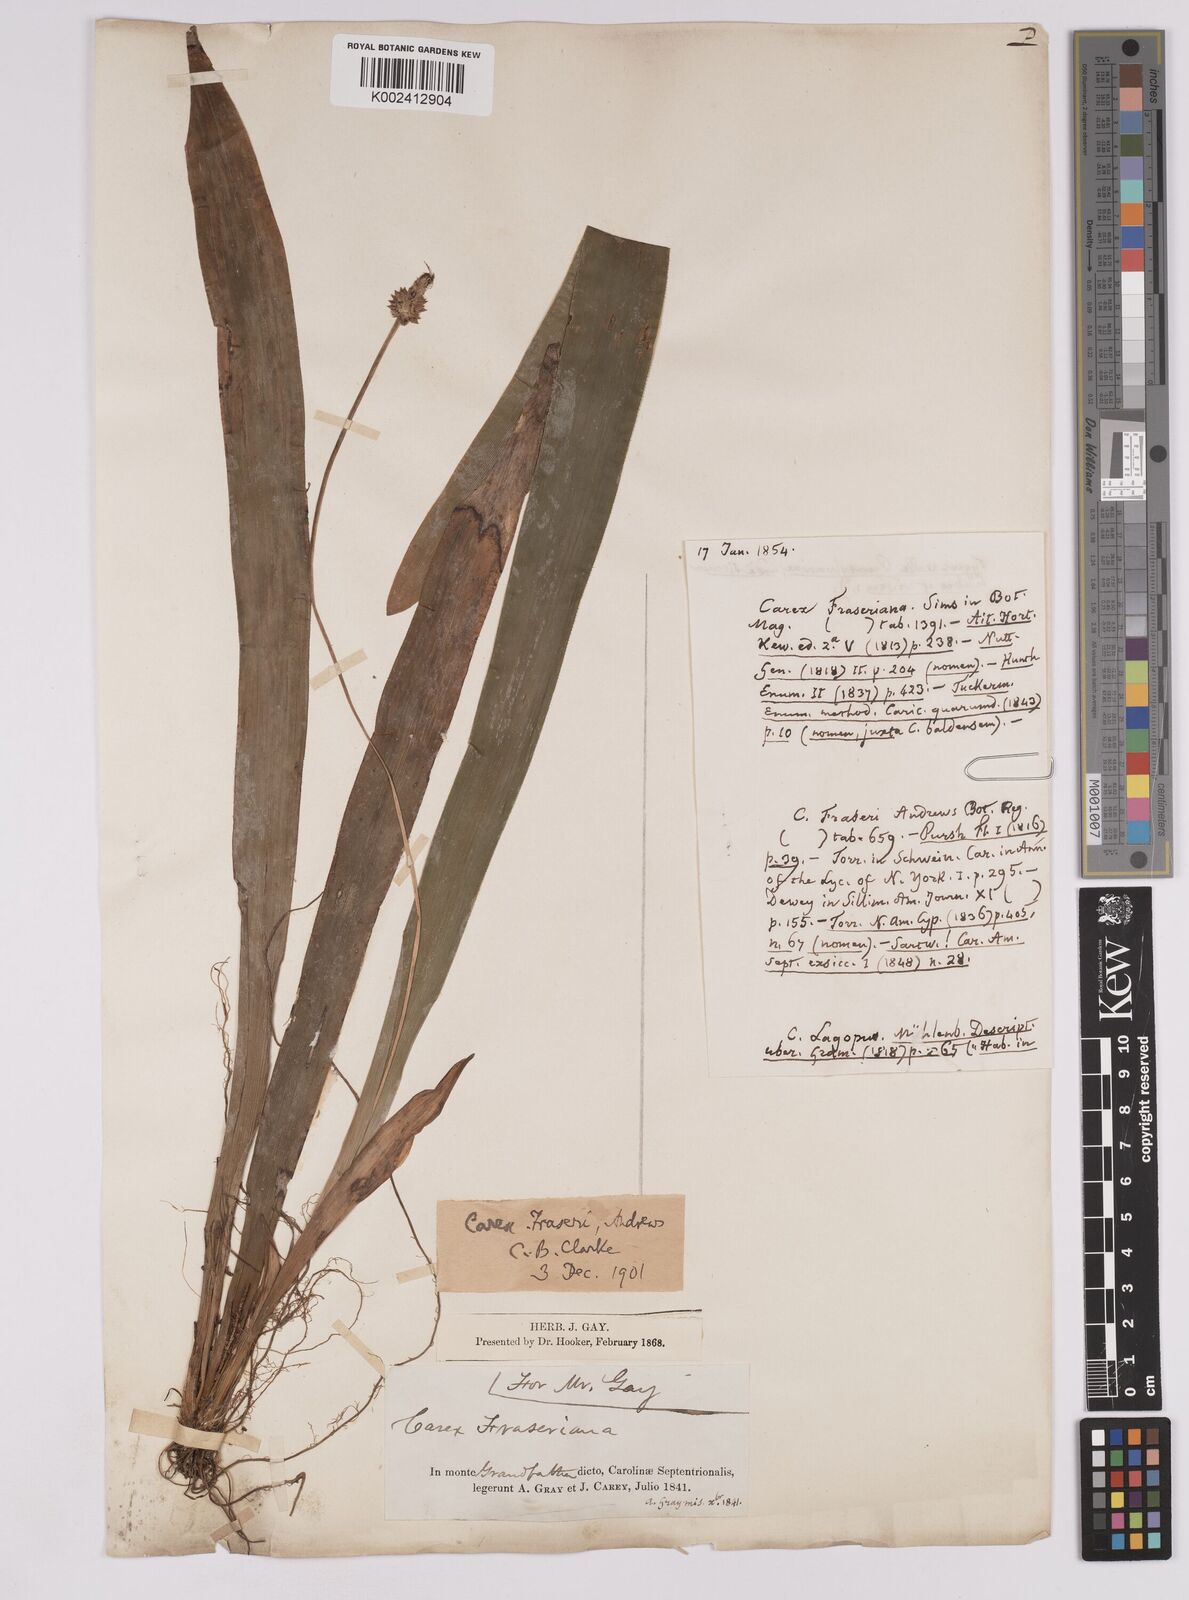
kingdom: Plantae
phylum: Tracheophyta
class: Liliopsida
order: Poales
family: Cyperaceae
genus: Carex
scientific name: Carex fraseriana
